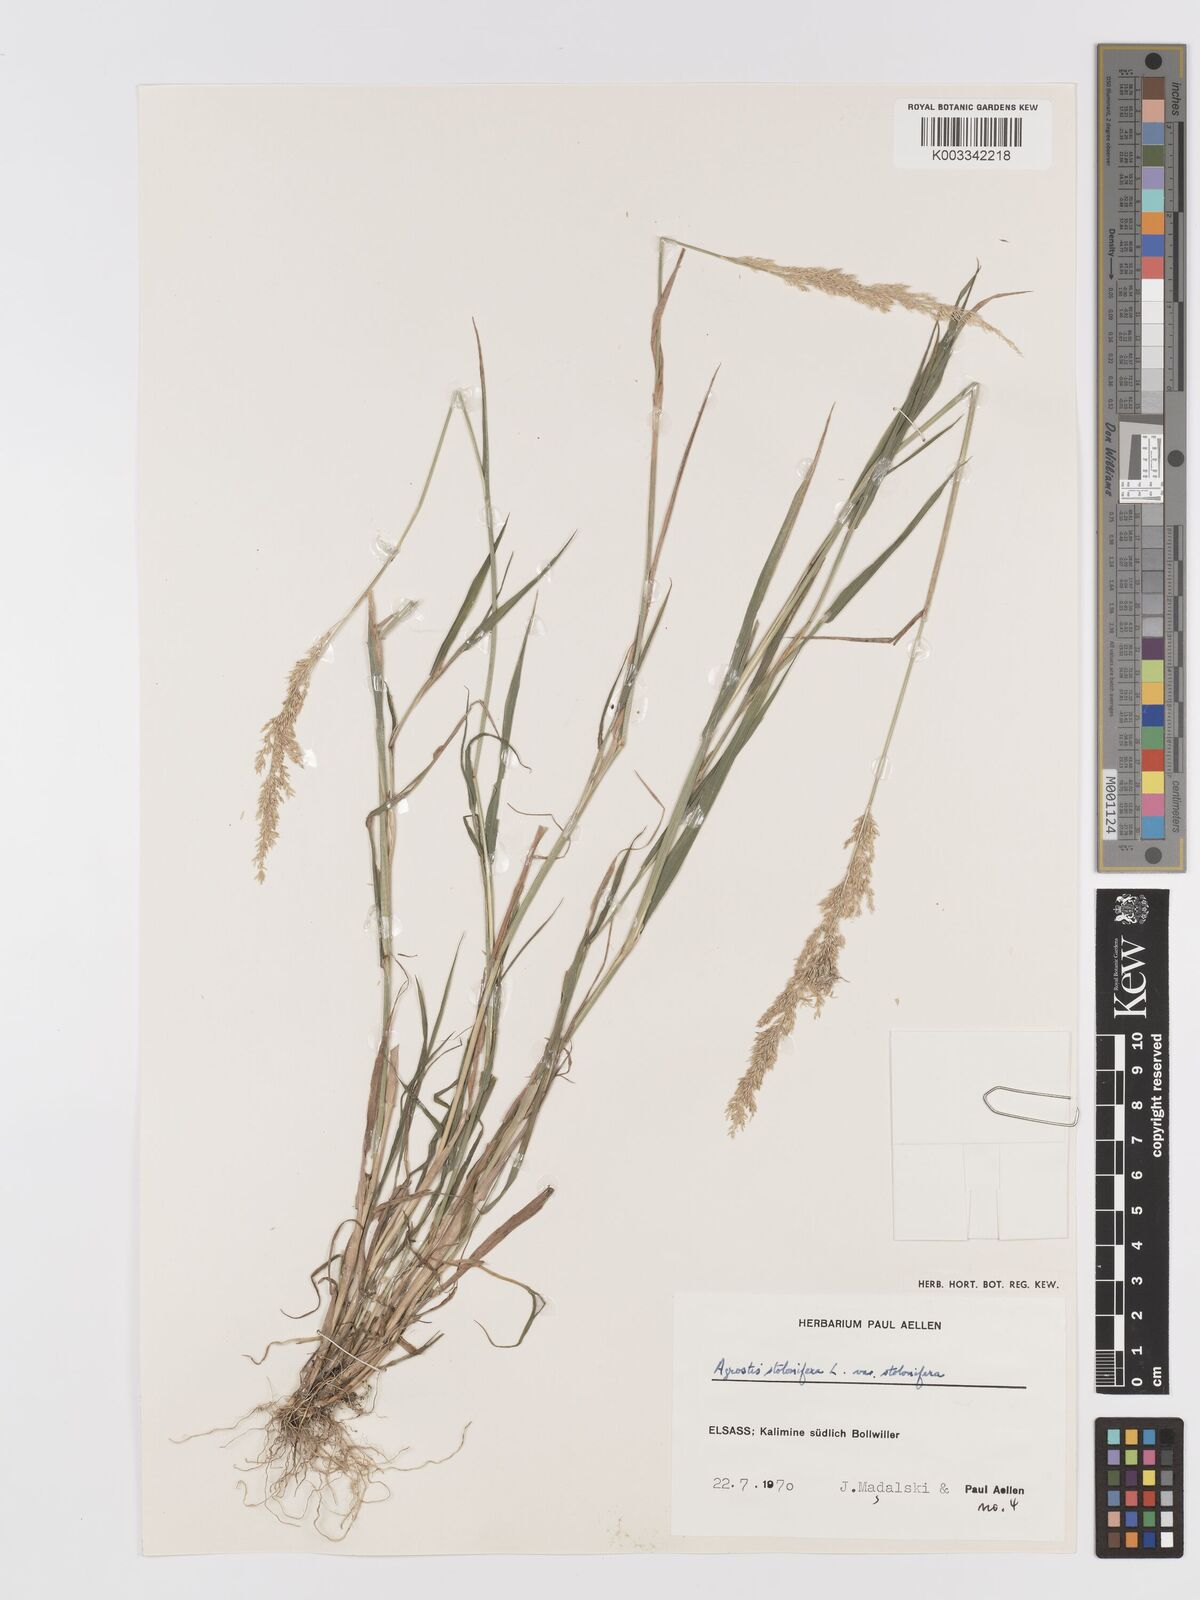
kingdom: Plantae
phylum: Tracheophyta
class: Liliopsida
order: Poales
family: Poaceae
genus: Agrostis
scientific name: Agrostis stolonifera
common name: Creeping bentgrass
